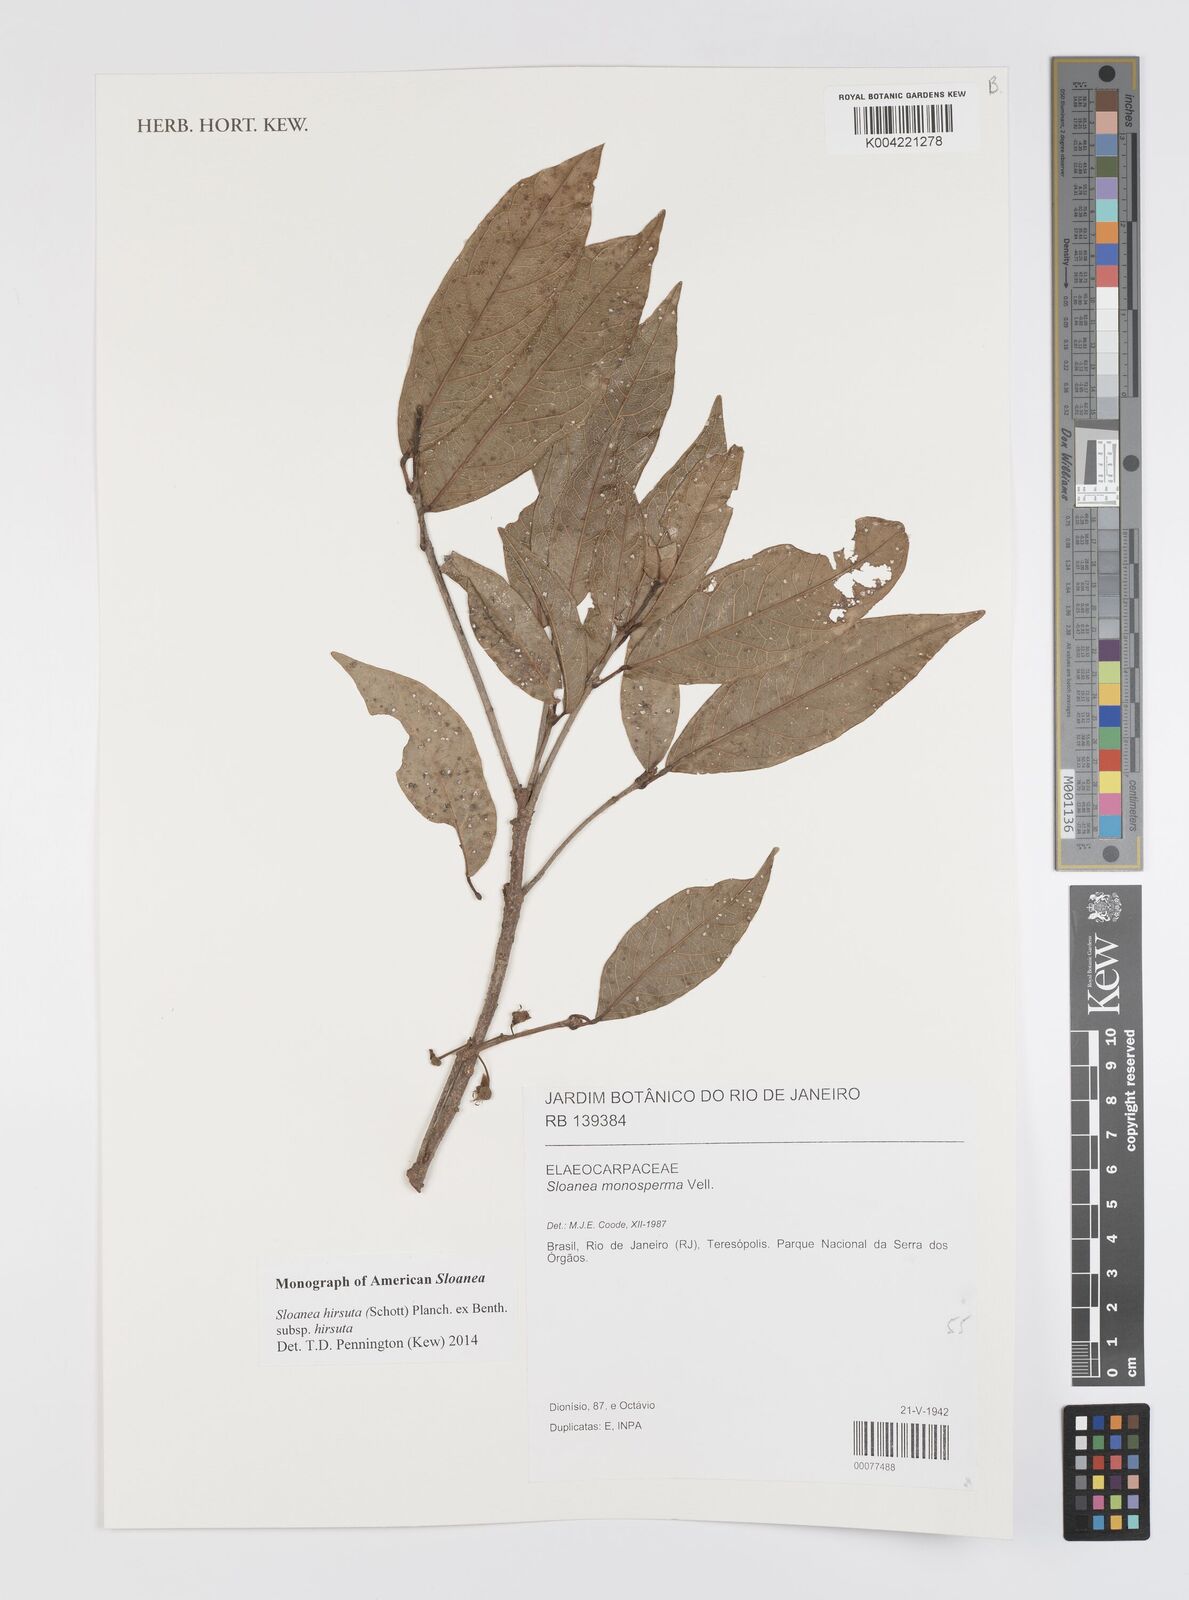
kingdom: Plantae
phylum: Tracheophyta
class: Magnoliopsida
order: Oxalidales
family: Elaeocarpaceae
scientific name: Elaeocarpaceae
